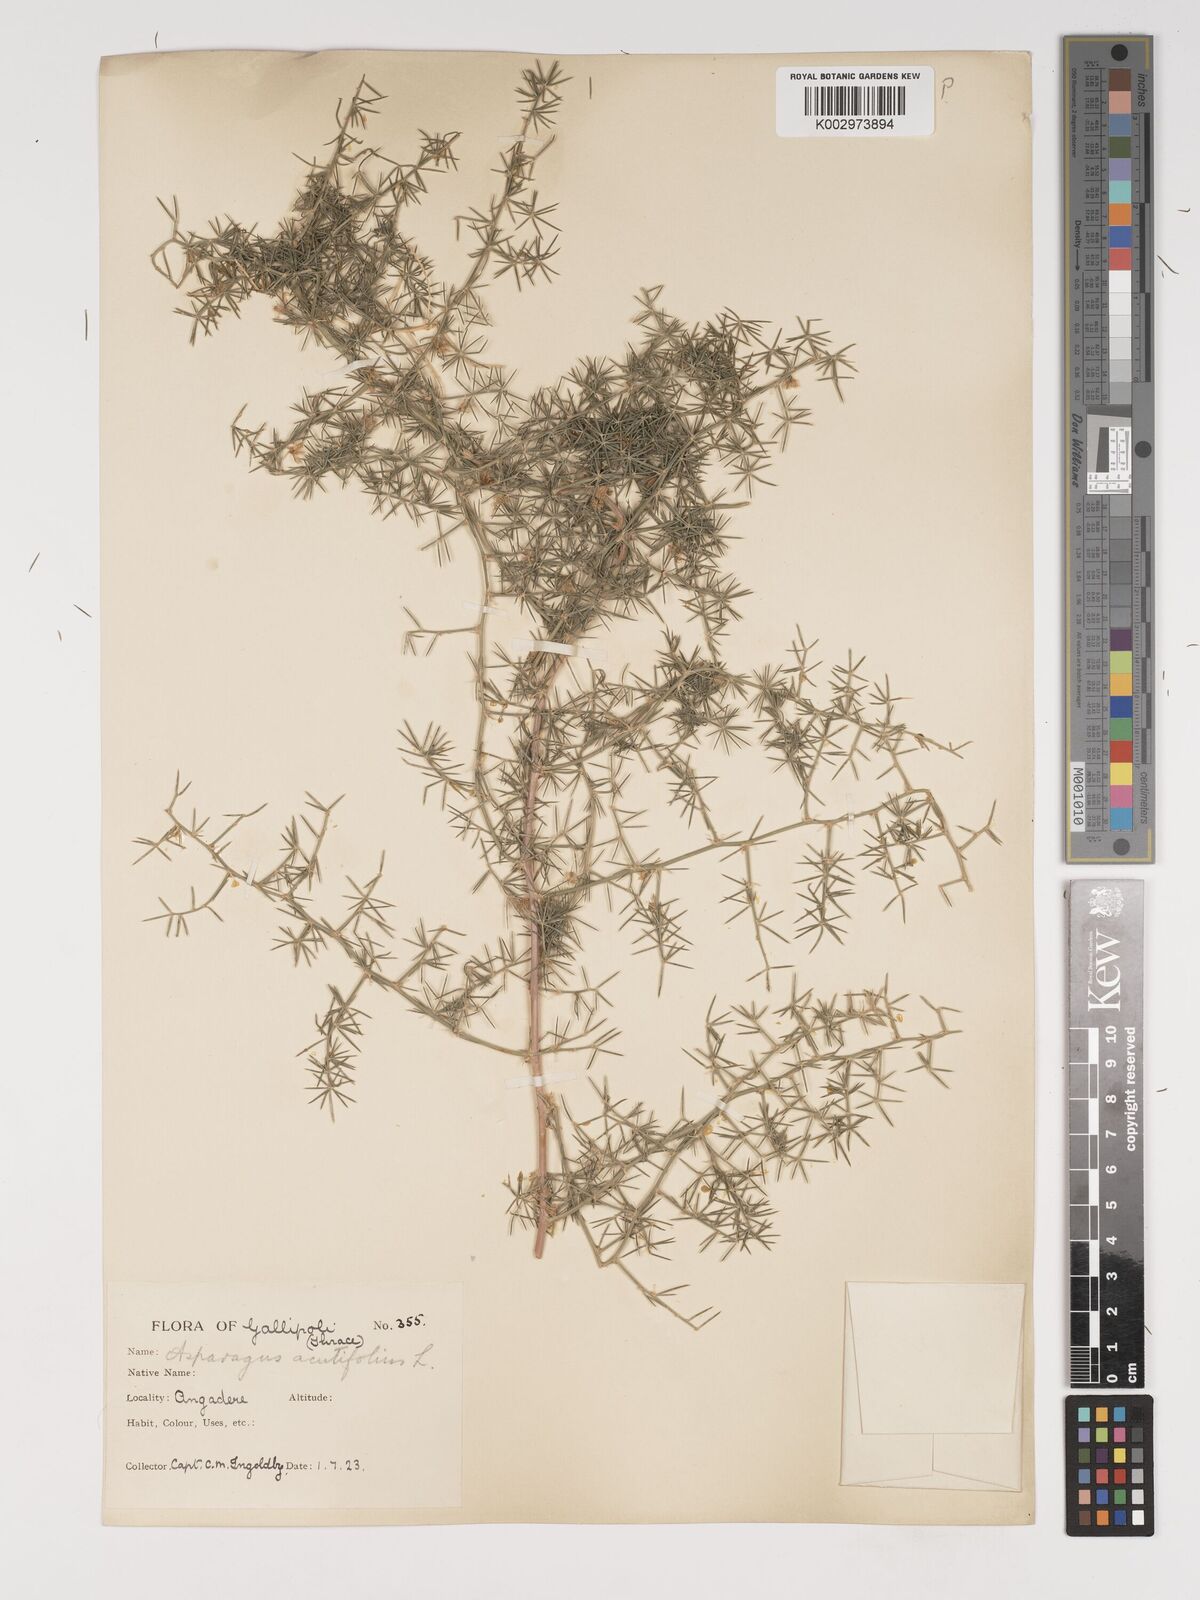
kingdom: Plantae
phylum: Tracheophyta
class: Liliopsida
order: Asparagales
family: Asparagaceae
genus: Asparagus
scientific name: Asparagus acutifolius
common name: Wild asparagus
